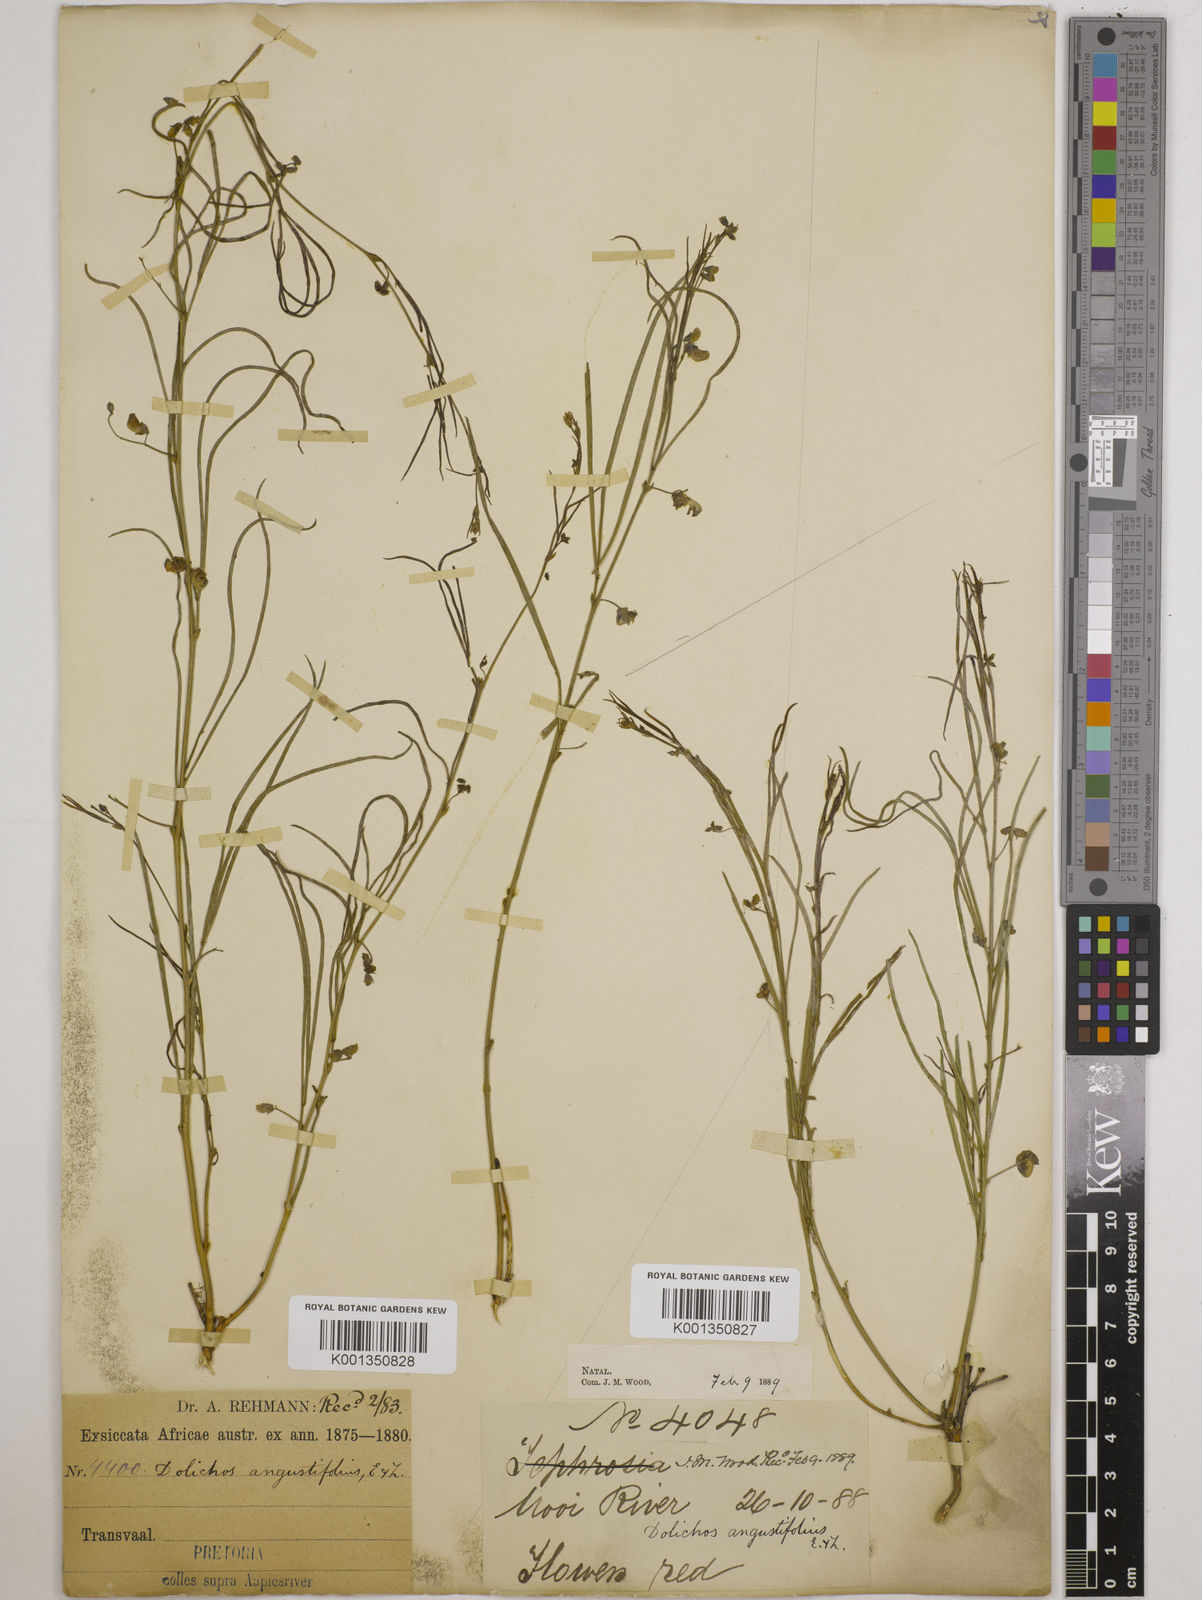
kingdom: Plantae
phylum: Tracheophyta
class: Magnoliopsida
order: Fabales
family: Fabaceae
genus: Dolichos
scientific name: Dolichos
